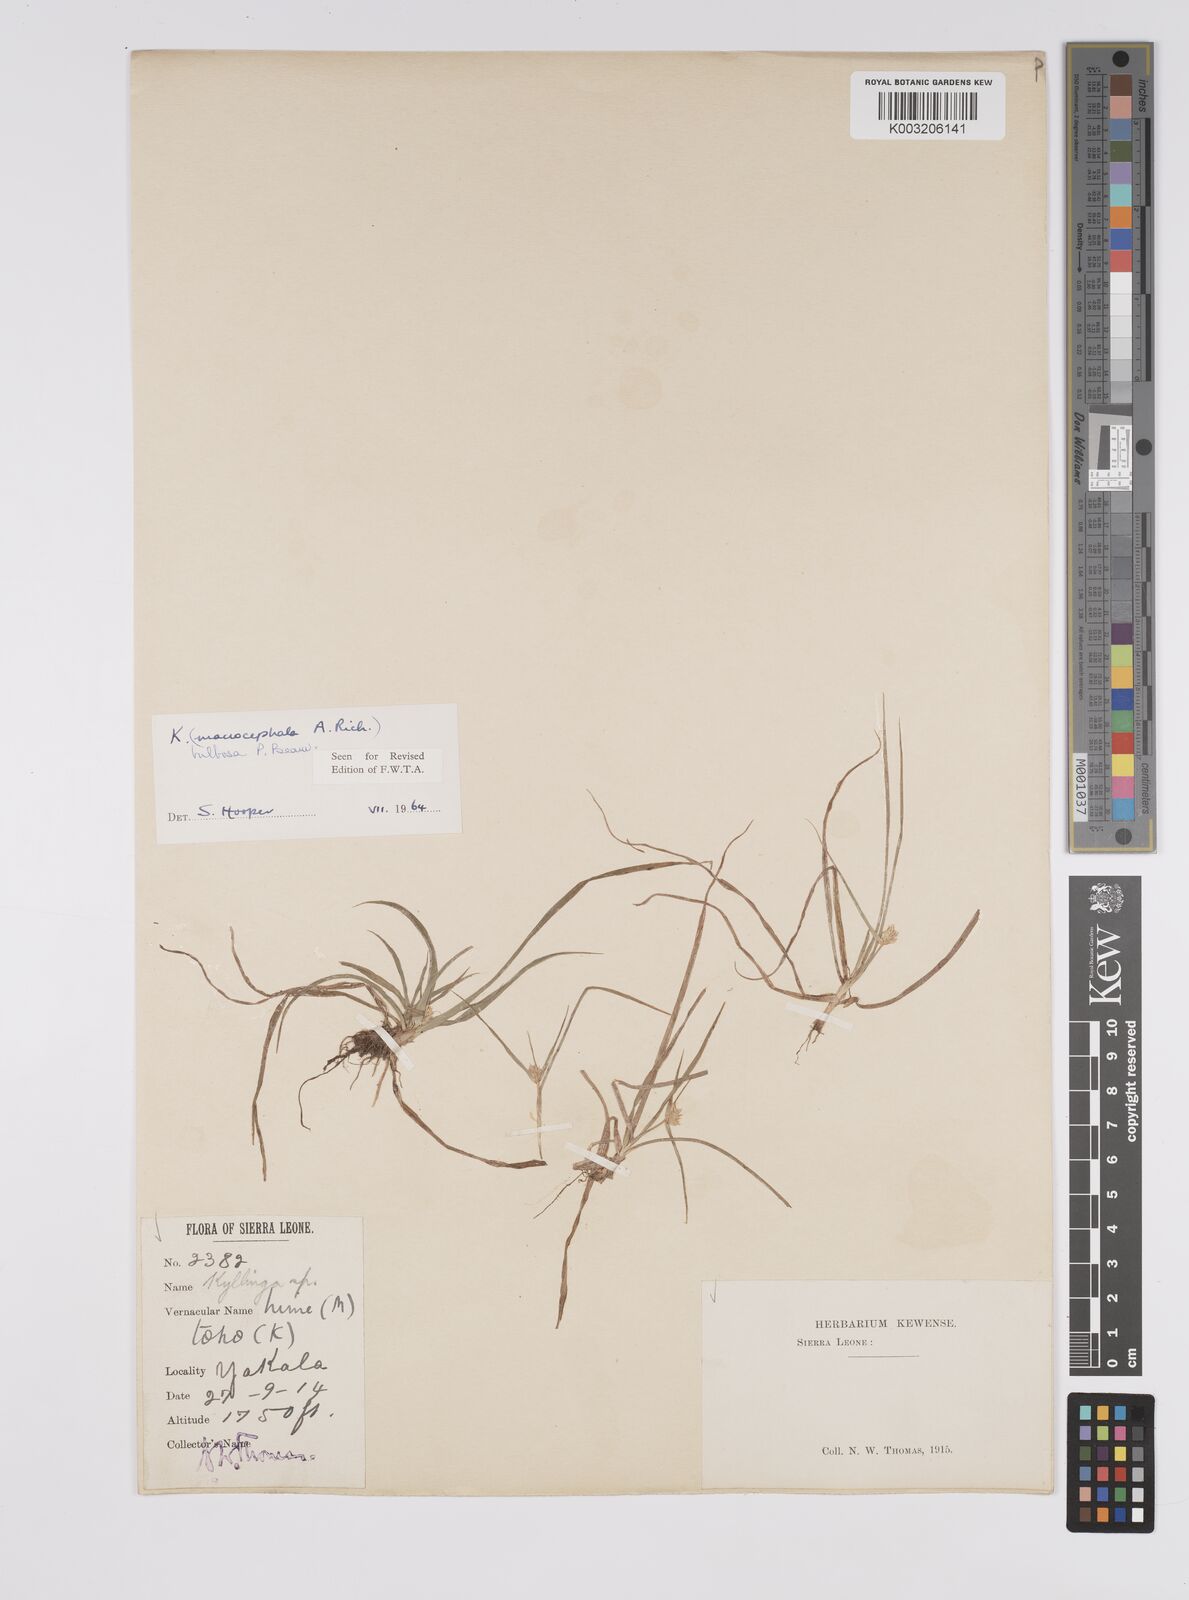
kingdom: Plantae
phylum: Tracheophyta
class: Liliopsida
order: Poales
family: Cyperaceae
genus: Cyperus
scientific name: Cyperus
